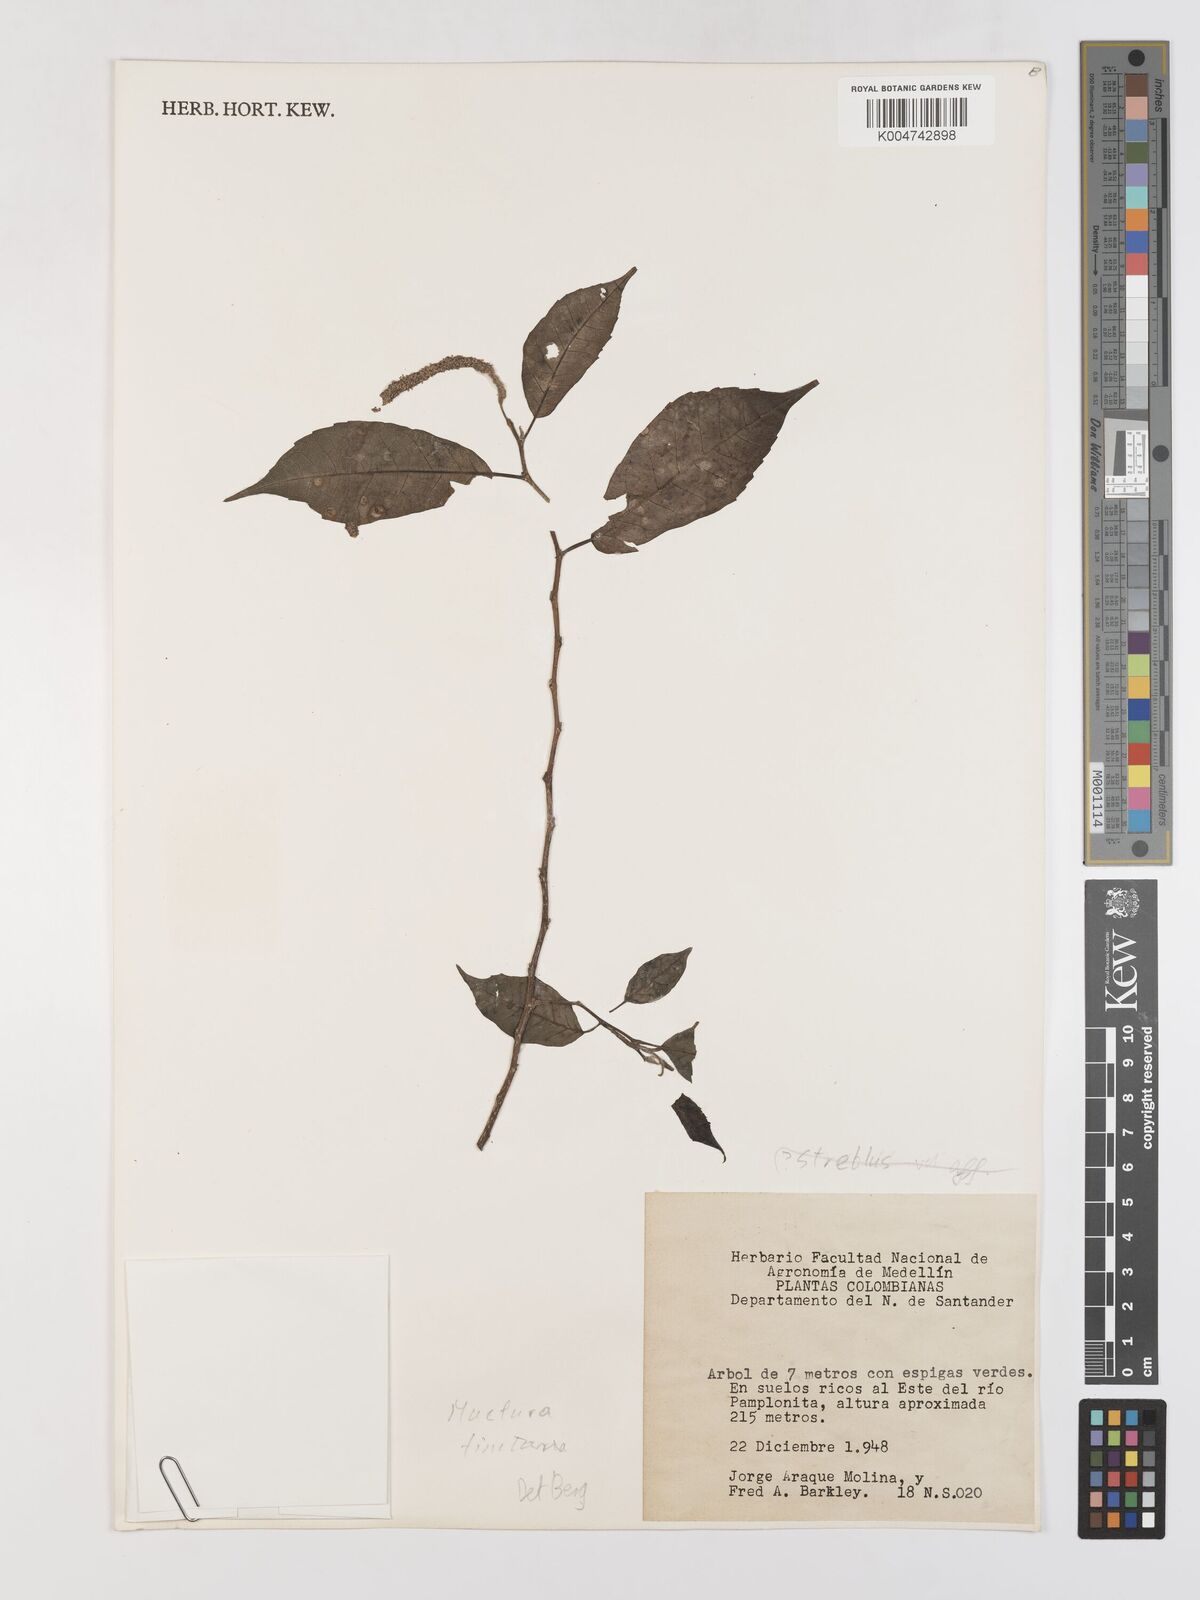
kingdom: Plantae
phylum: Tracheophyta
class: Magnoliopsida
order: Rosales
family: Moraceae
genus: Maclura
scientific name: Maclura tinctoria
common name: Old fustic
